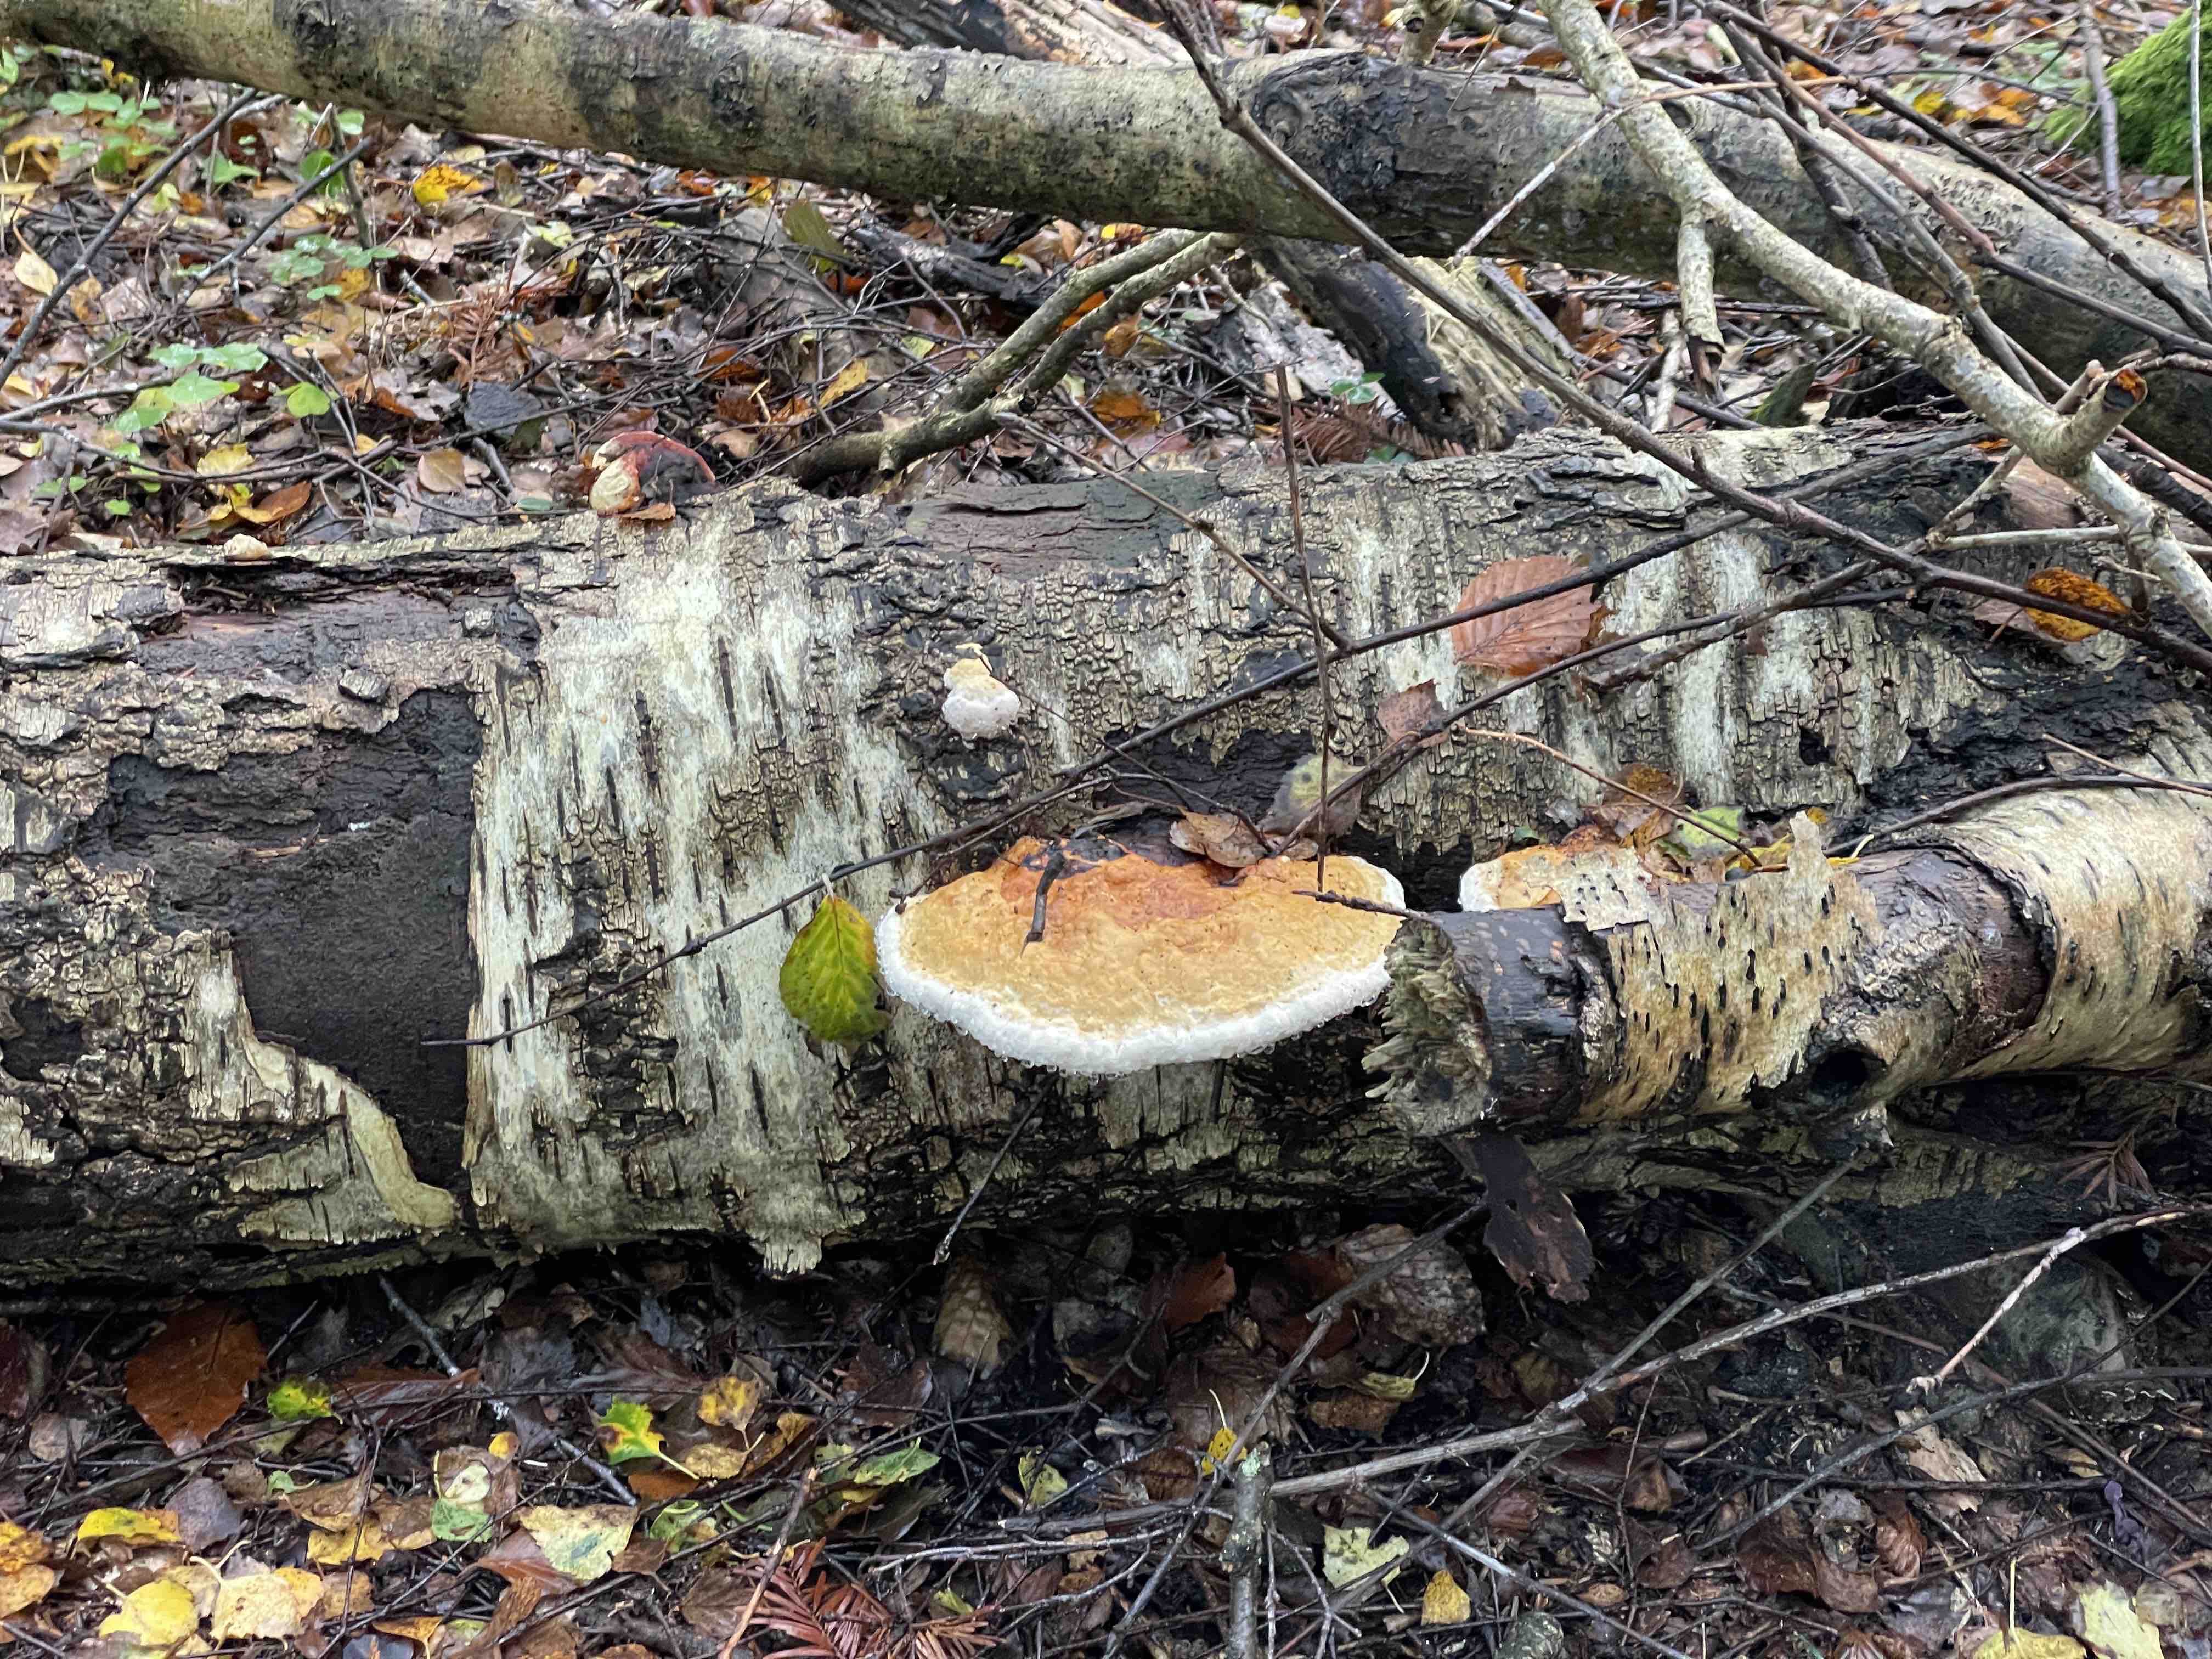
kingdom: Fungi
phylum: Basidiomycota
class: Agaricomycetes
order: Polyporales
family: Fomitopsidaceae
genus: Fomitopsis
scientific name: Fomitopsis pinicola
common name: randbæltet hovporesvamp
